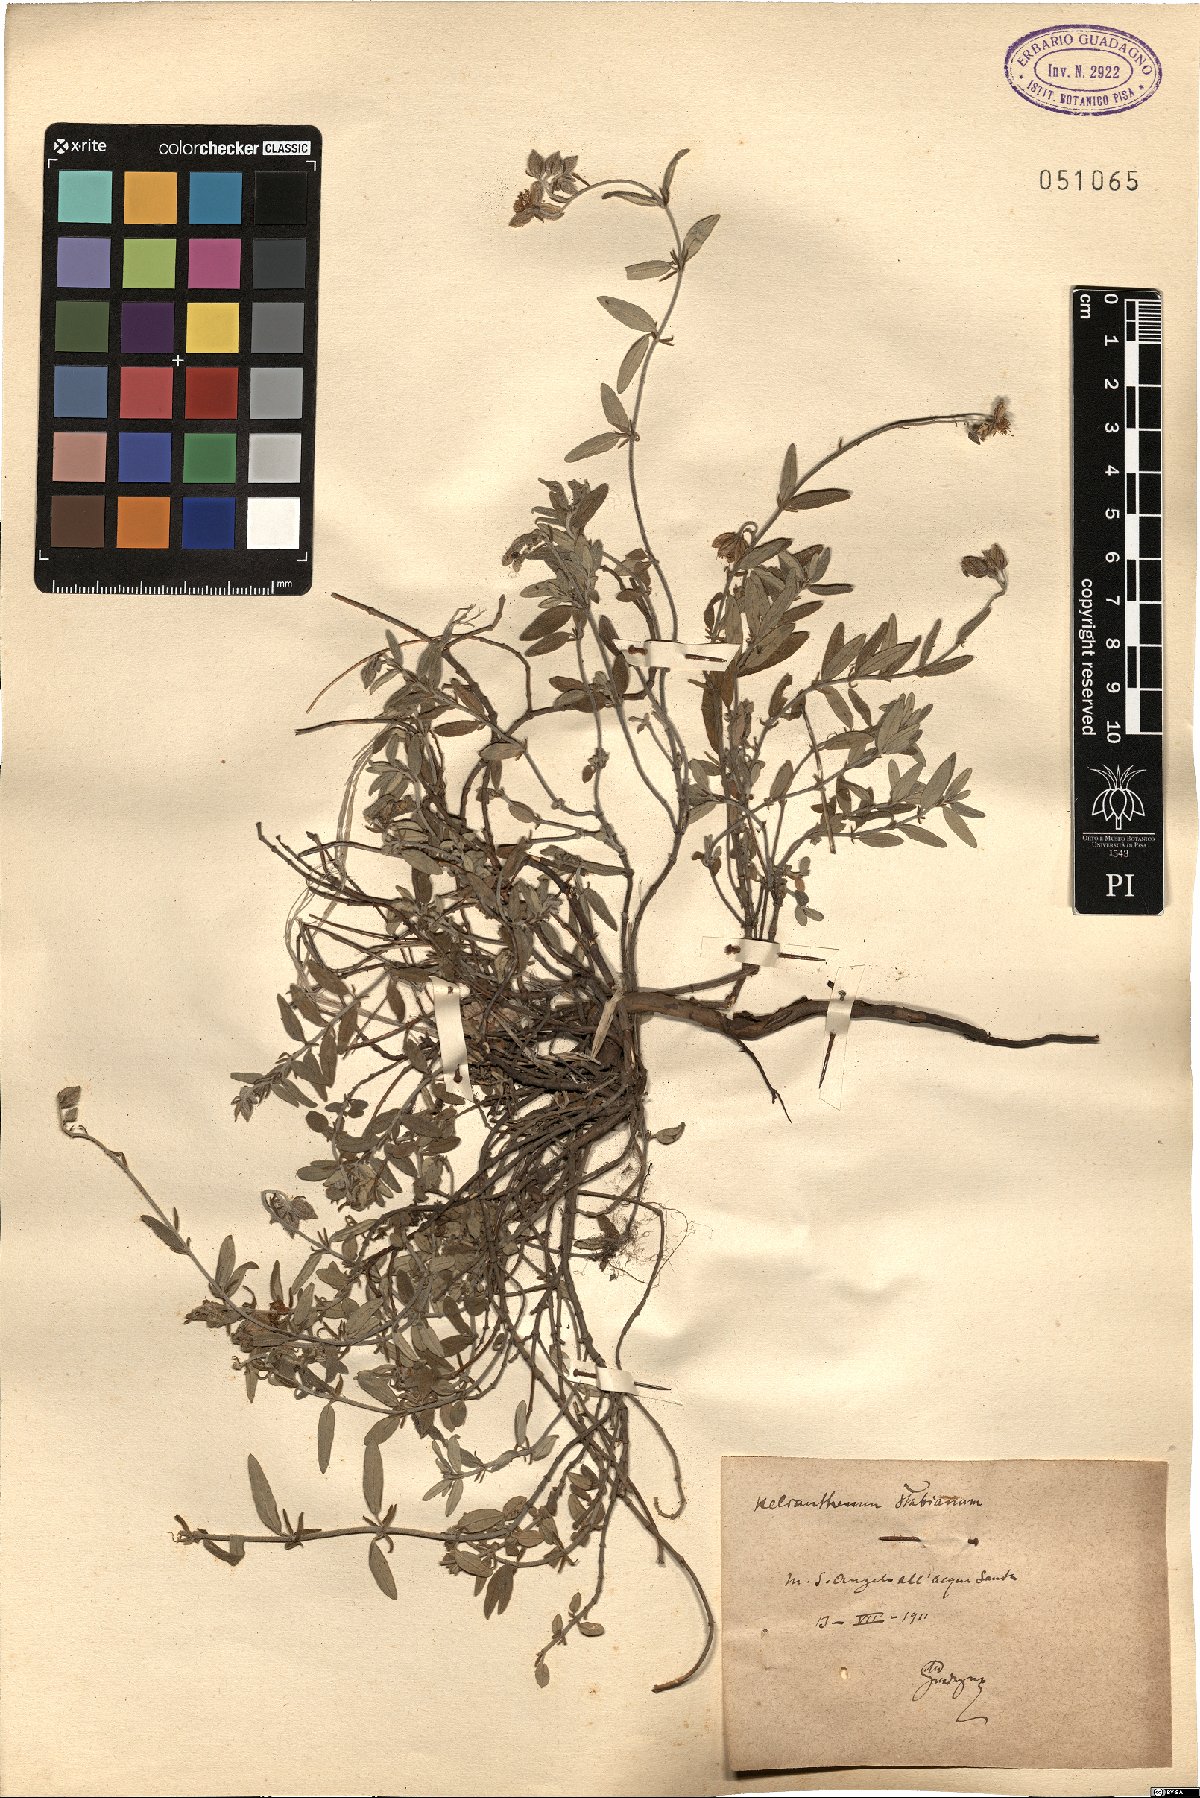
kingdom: Plantae
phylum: Tracheophyta
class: Magnoliopsida
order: Malvales
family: Cistaceae
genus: Helianthemum
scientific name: Helianthemum croceum
